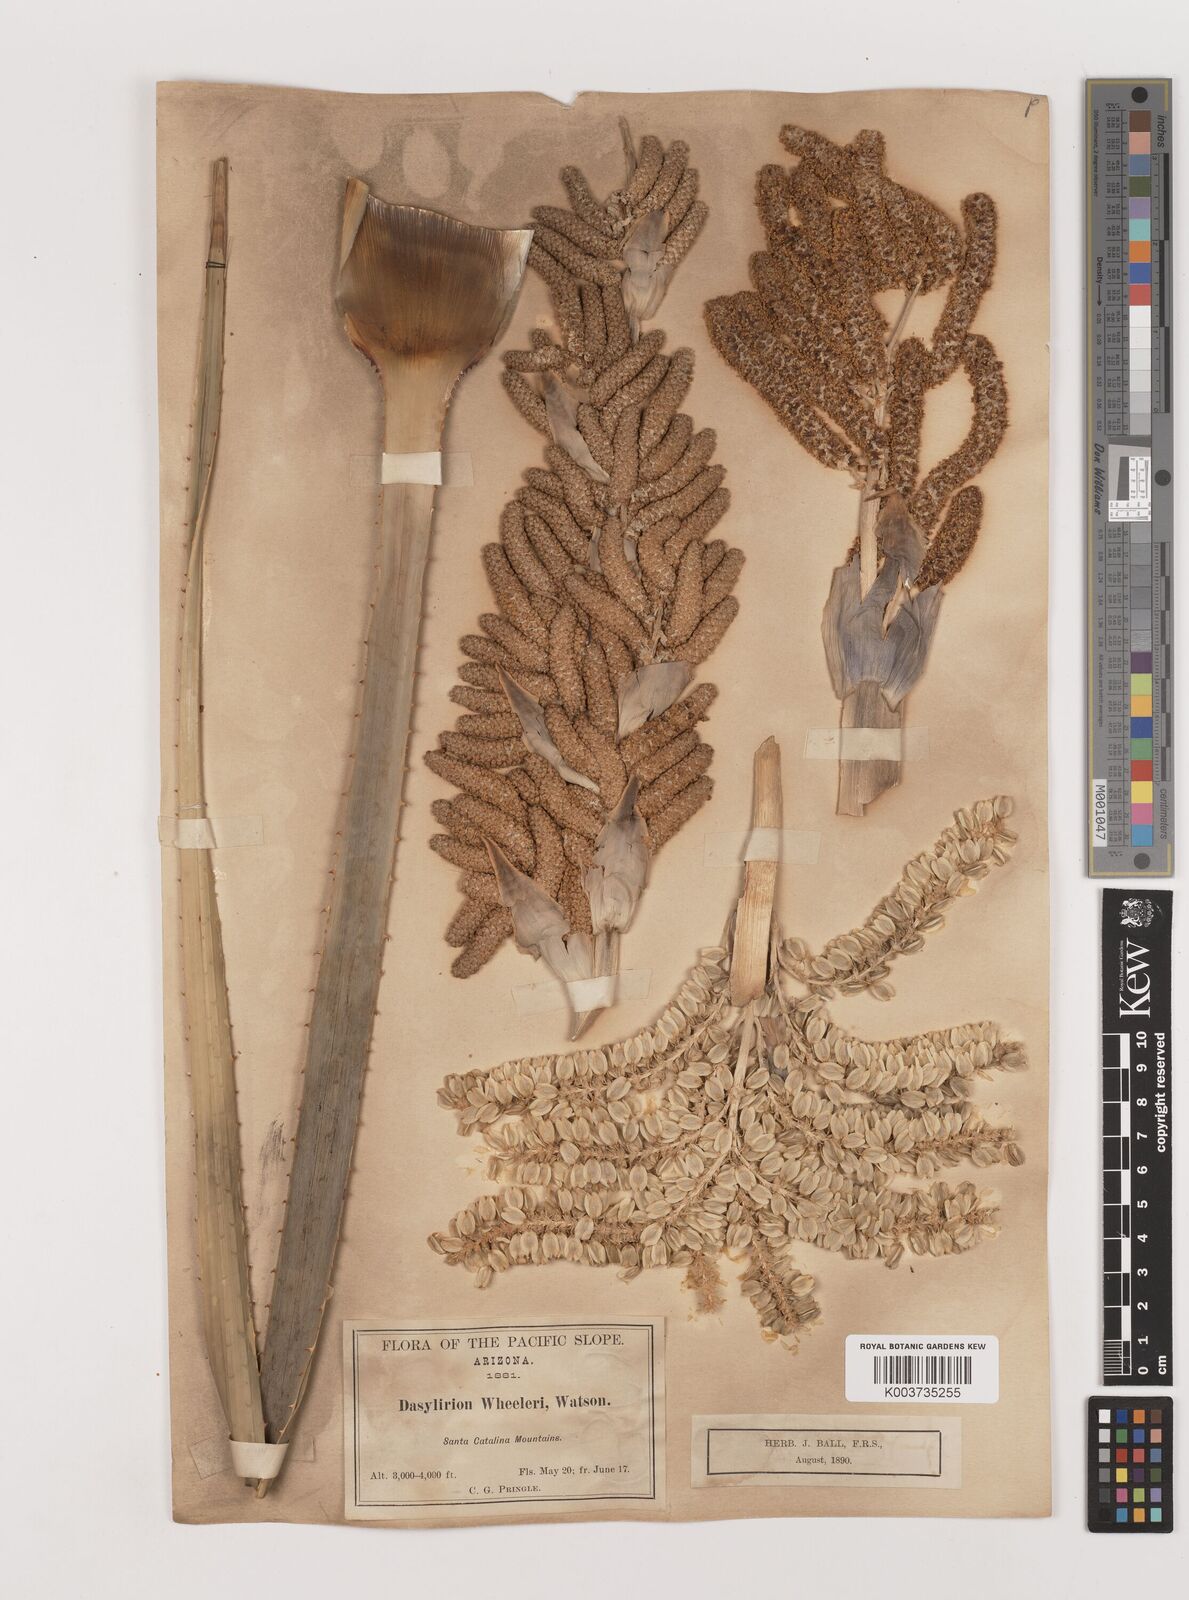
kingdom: Plantae
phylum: Tracheophyta
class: Liliopsida
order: Asparagales
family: Asparagaceae
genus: Dasylirion
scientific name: Dasylirion wheeleri
